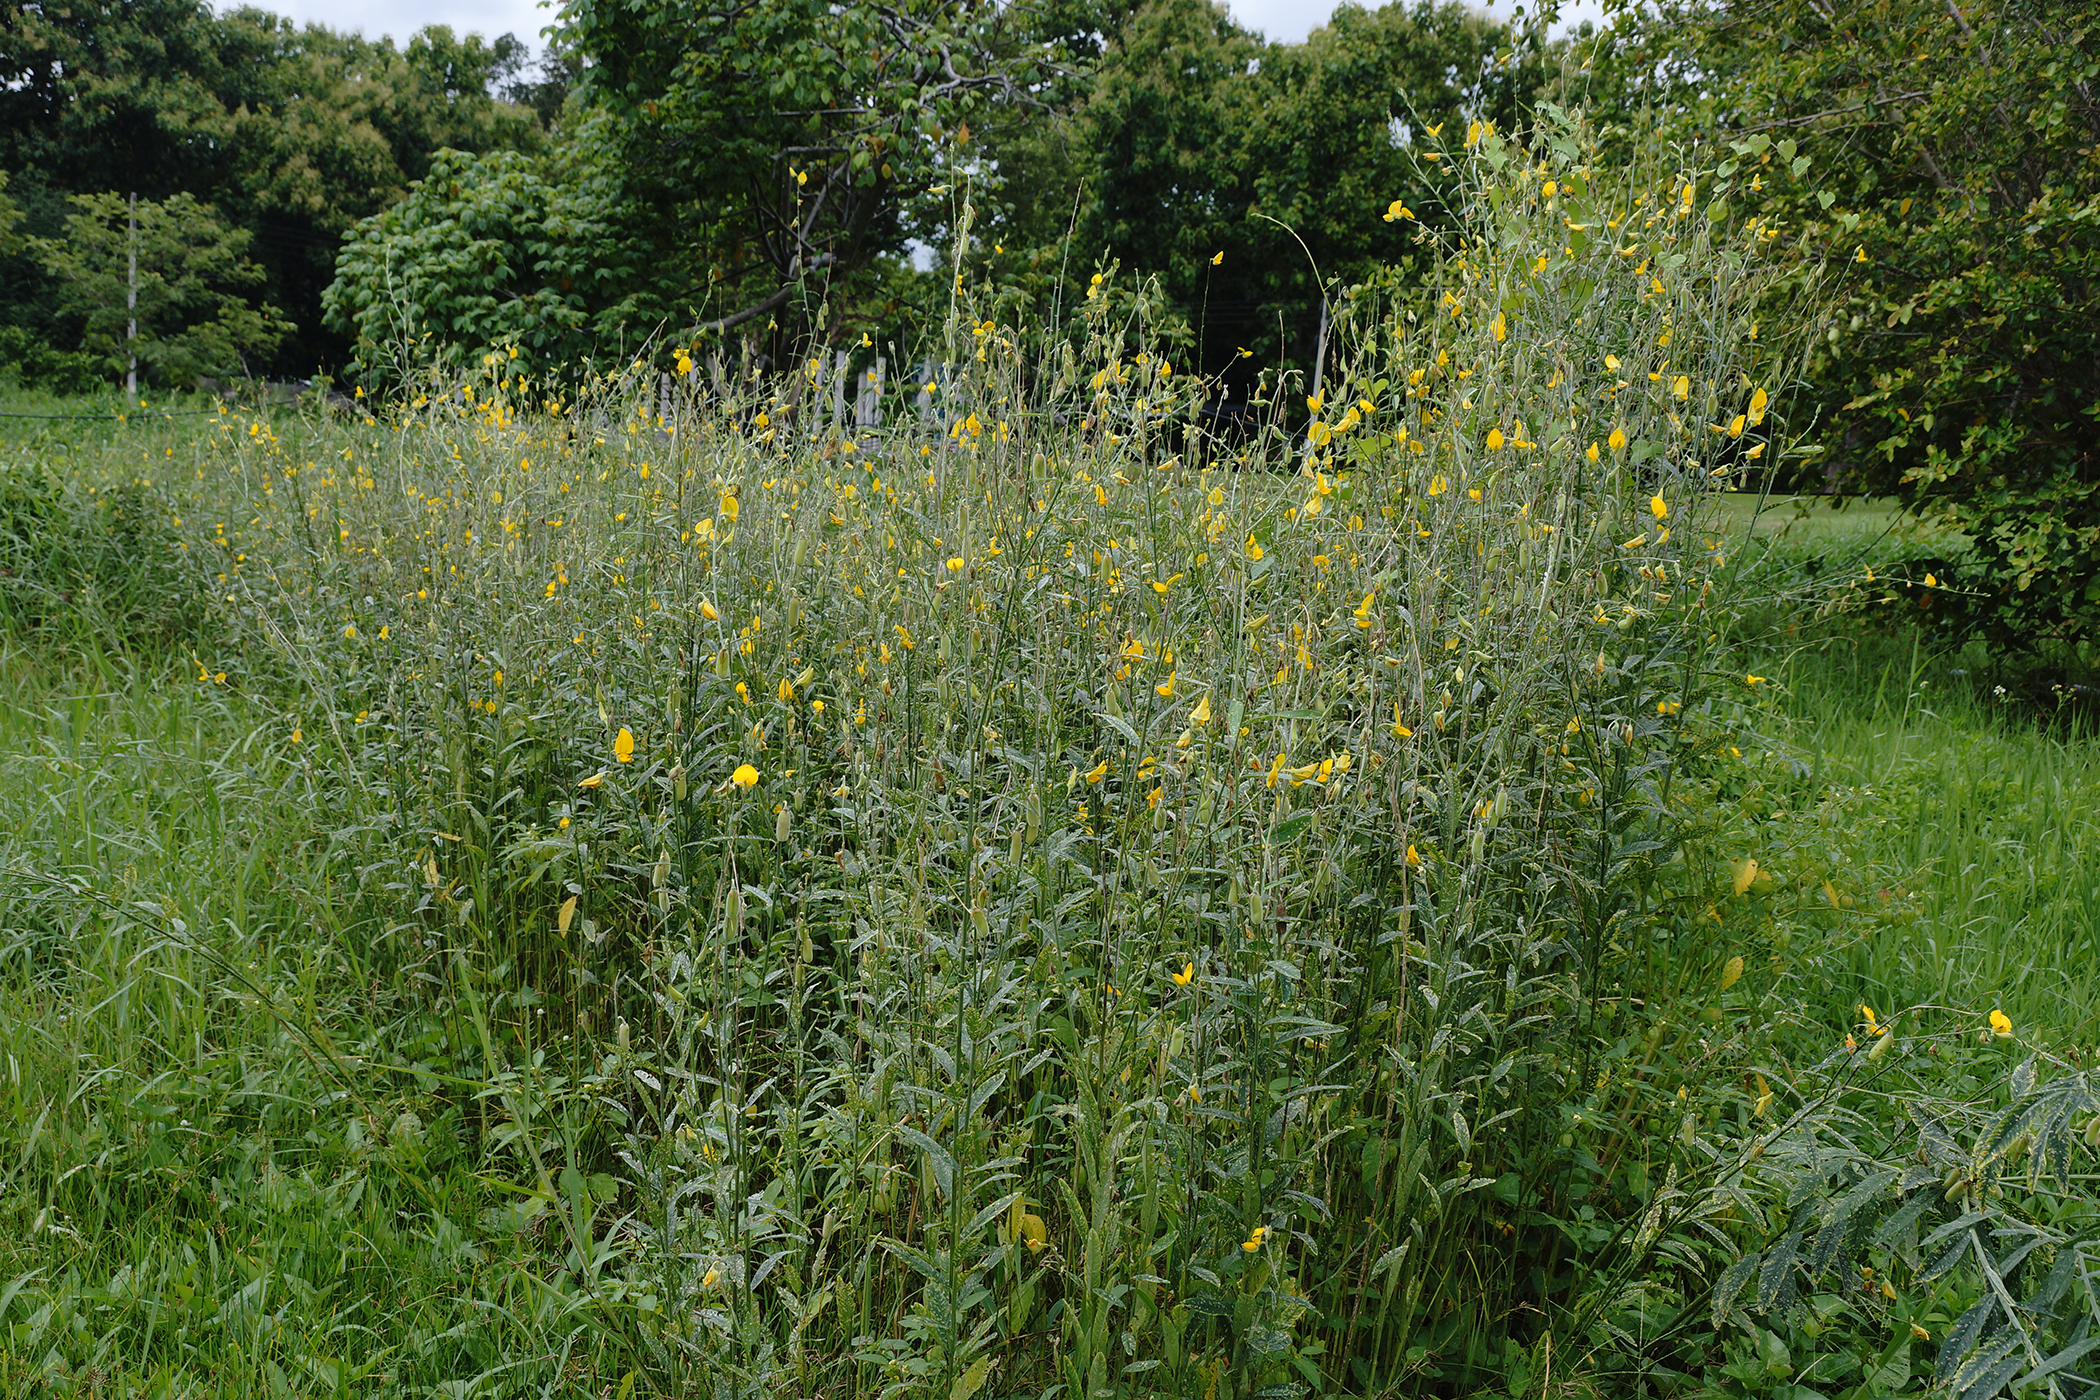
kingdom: Plantae
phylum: Tracheophyta
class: Magnoliopsida
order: Fabales
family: Fabaceae
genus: Crotalaria
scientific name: Crotalaria juncea
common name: Sunn hemp
